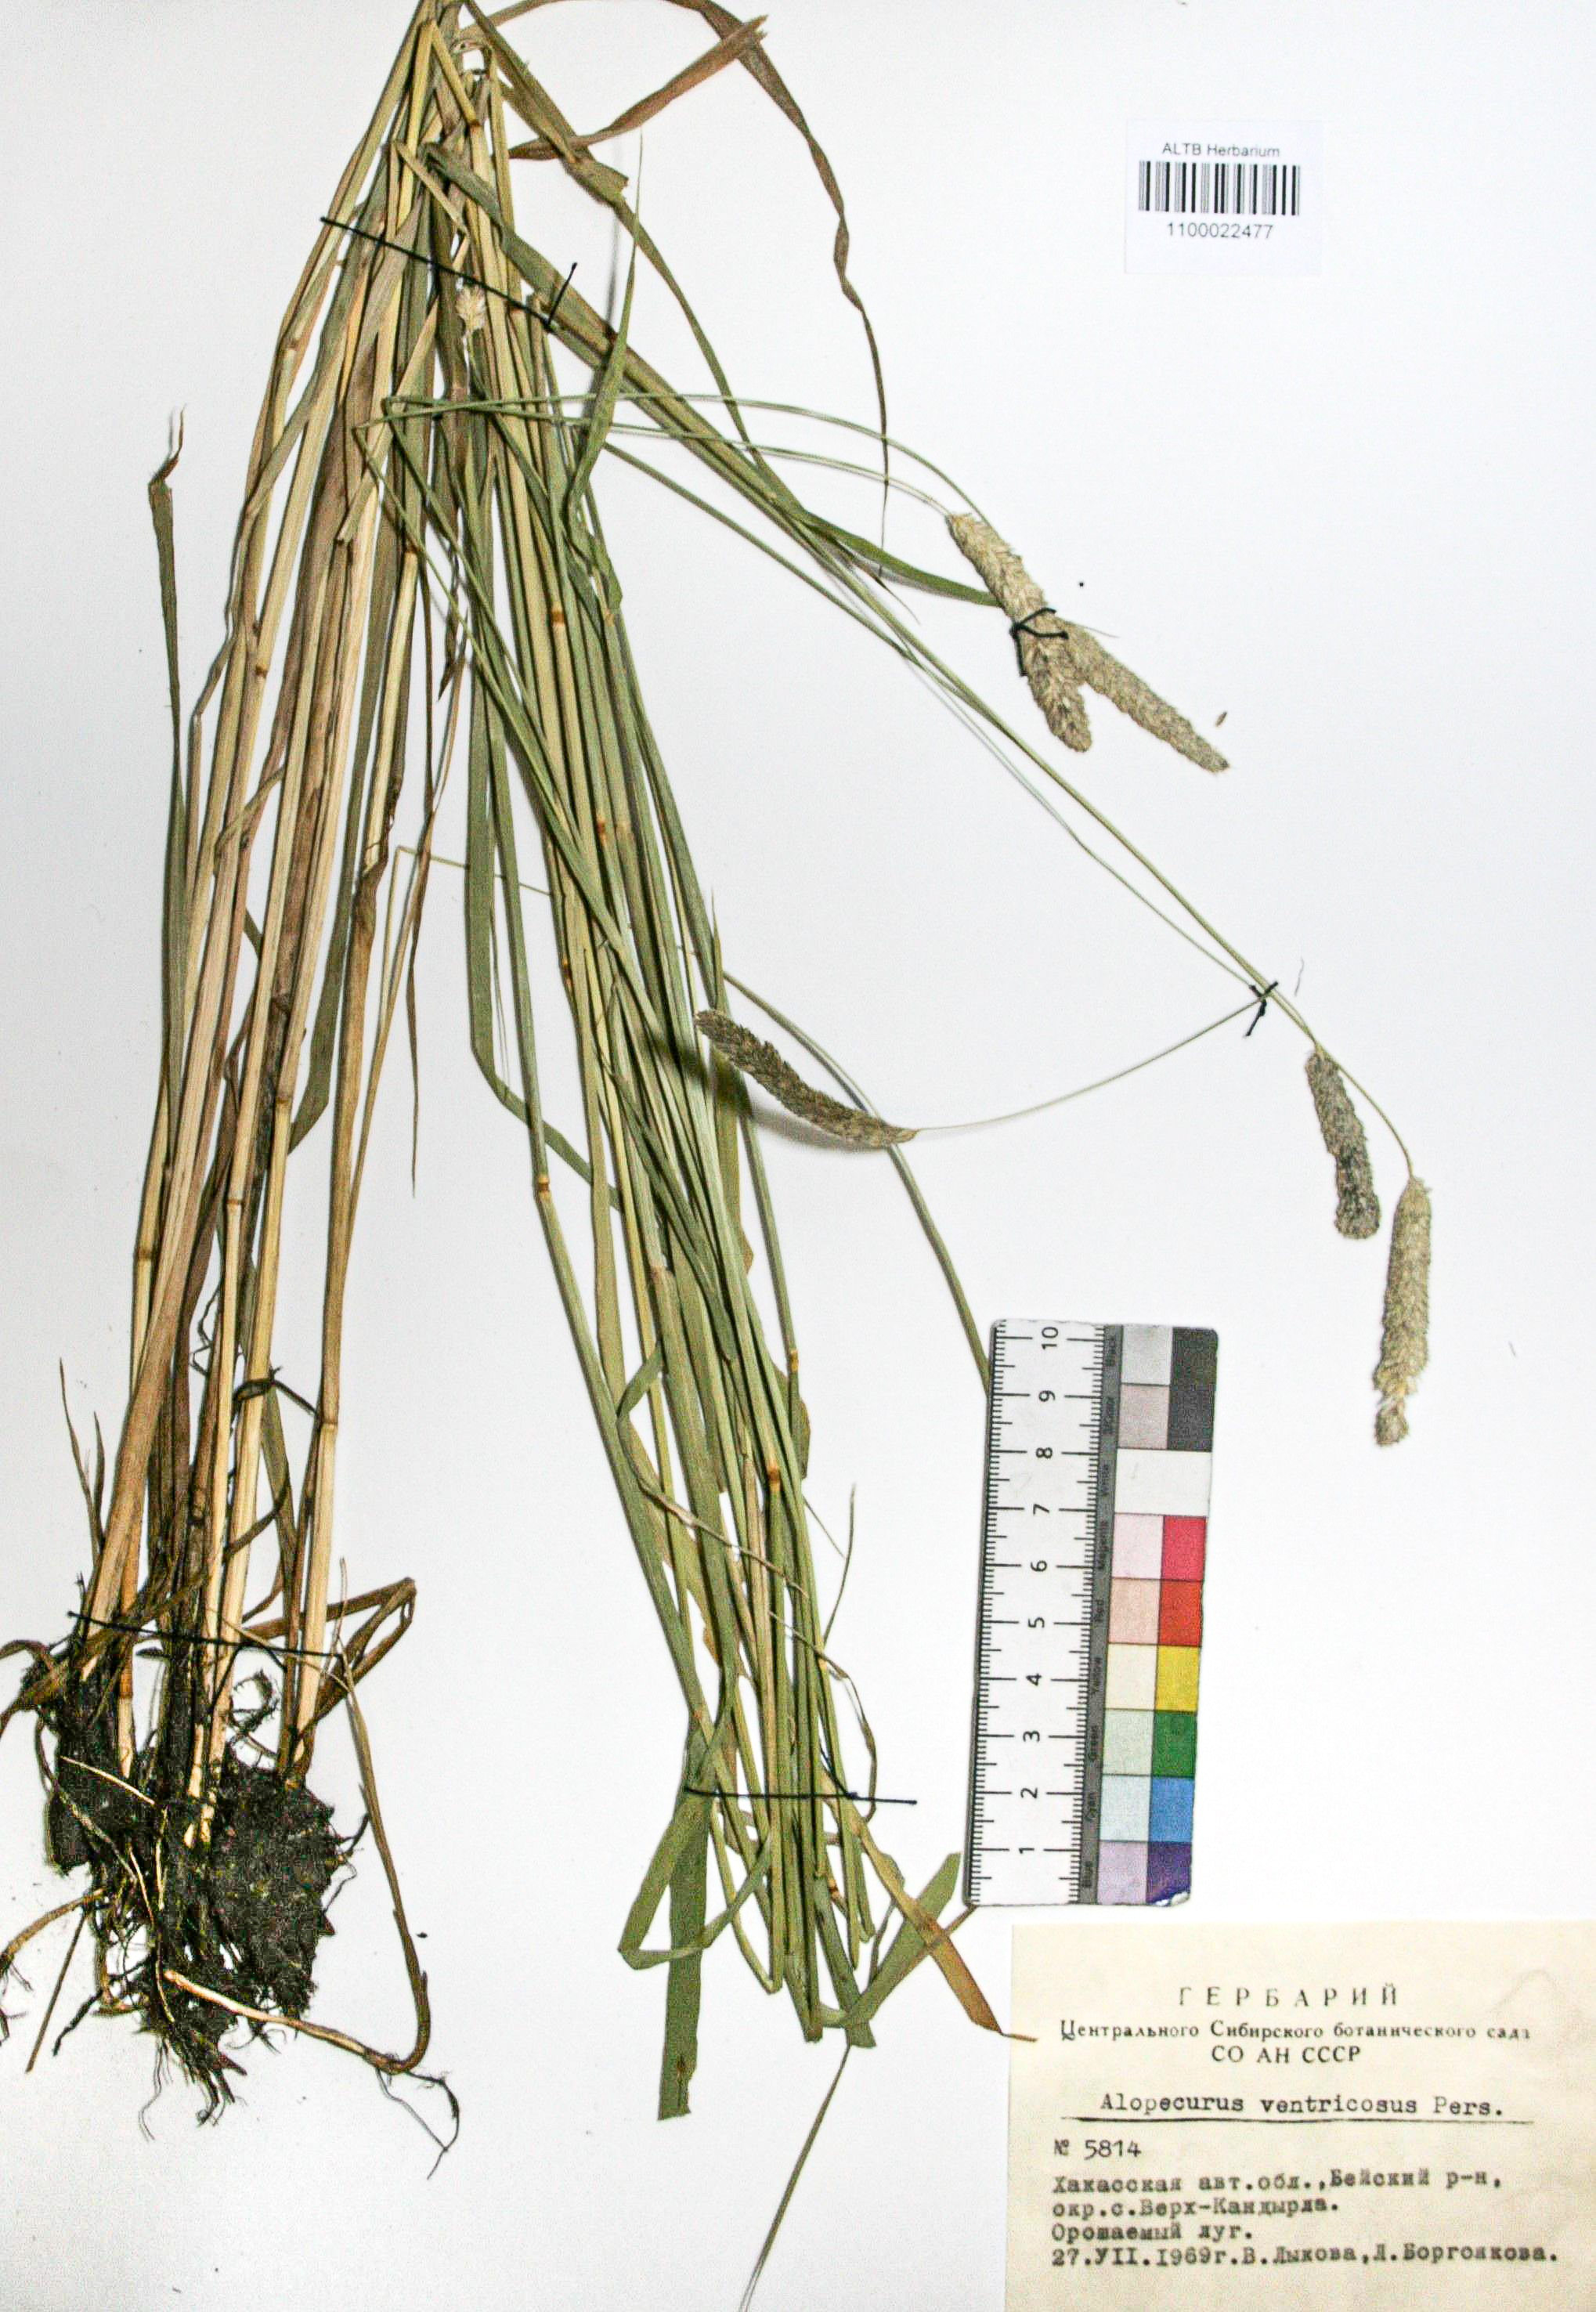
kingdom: Plantae
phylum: Tracheophyta
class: Liliopsida
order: Poales
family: Poaceae
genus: Alopecurus
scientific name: Alopecurus arundinaceus
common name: Creeping meadow foxtail
